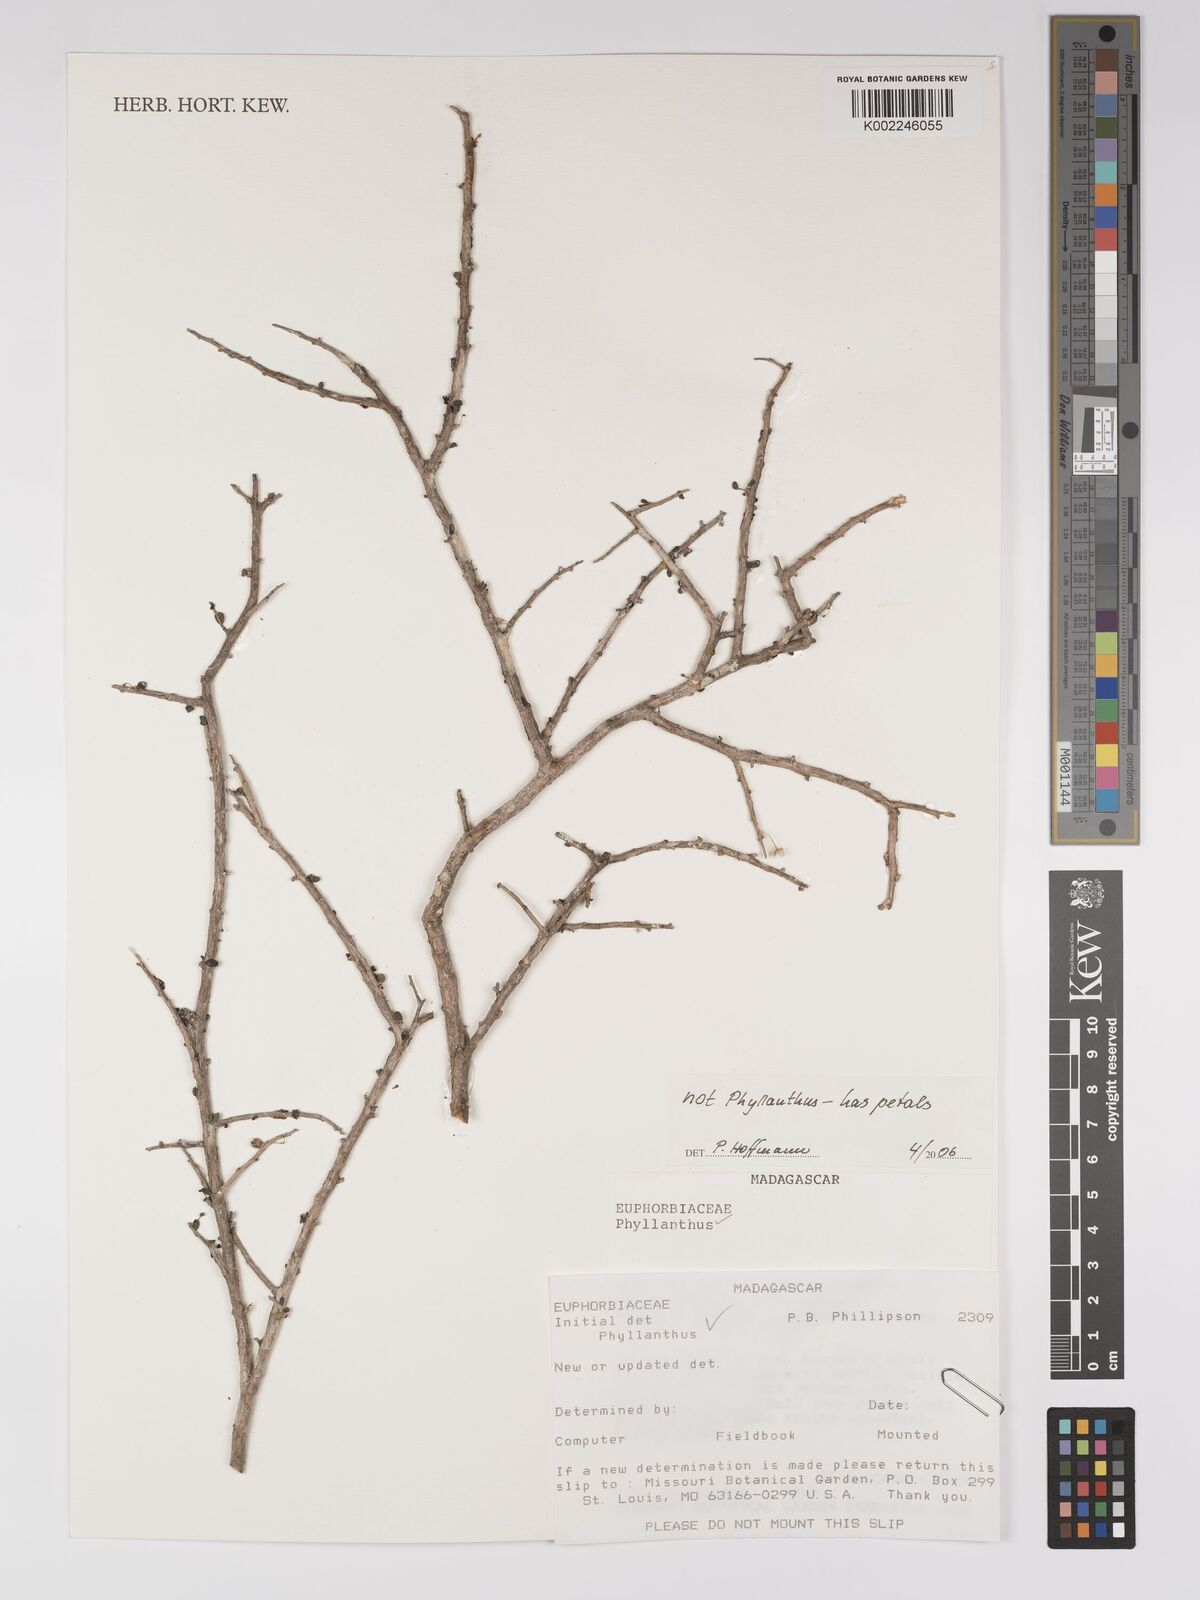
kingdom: Plantae
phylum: Tracheophyta
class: Magnoliopsida
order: Malpighiales
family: Euphorbiaceae
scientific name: Euphorbiaceae
